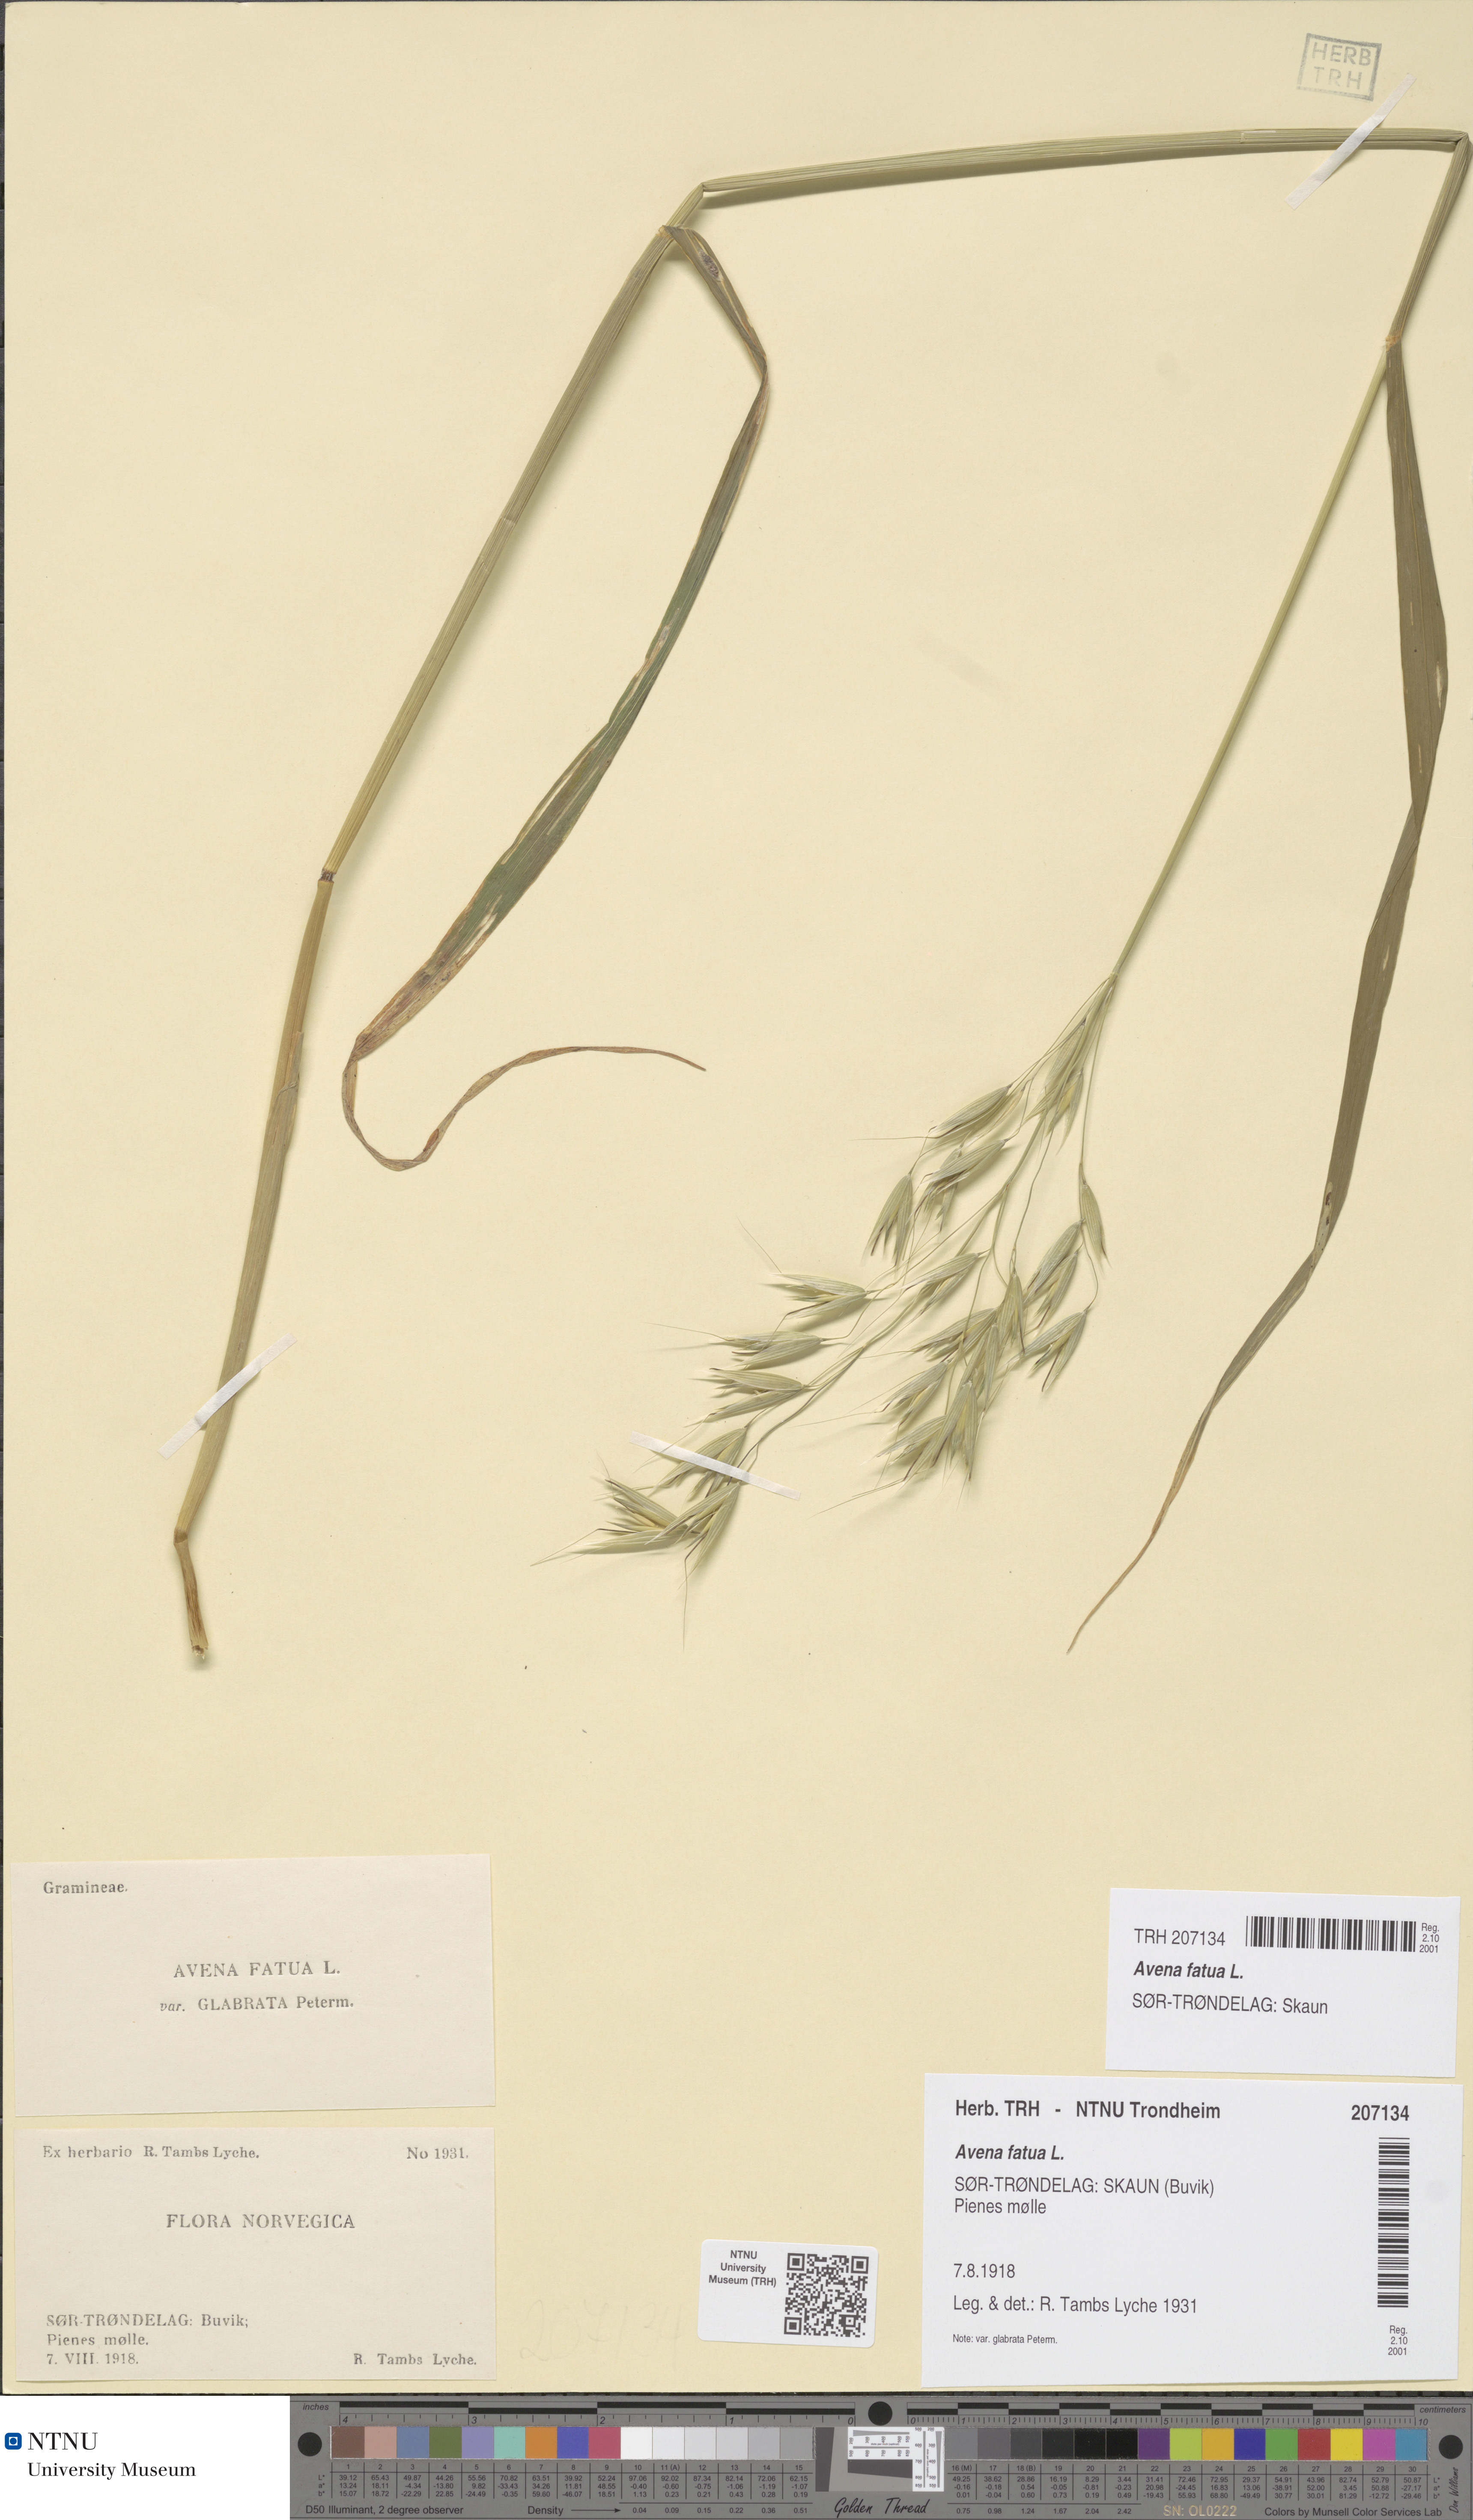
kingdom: Plantae
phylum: Tracheophyta
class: Liliopsida
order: Poales
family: Poaceae
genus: Avena
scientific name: Avena fatua
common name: Wild oat
